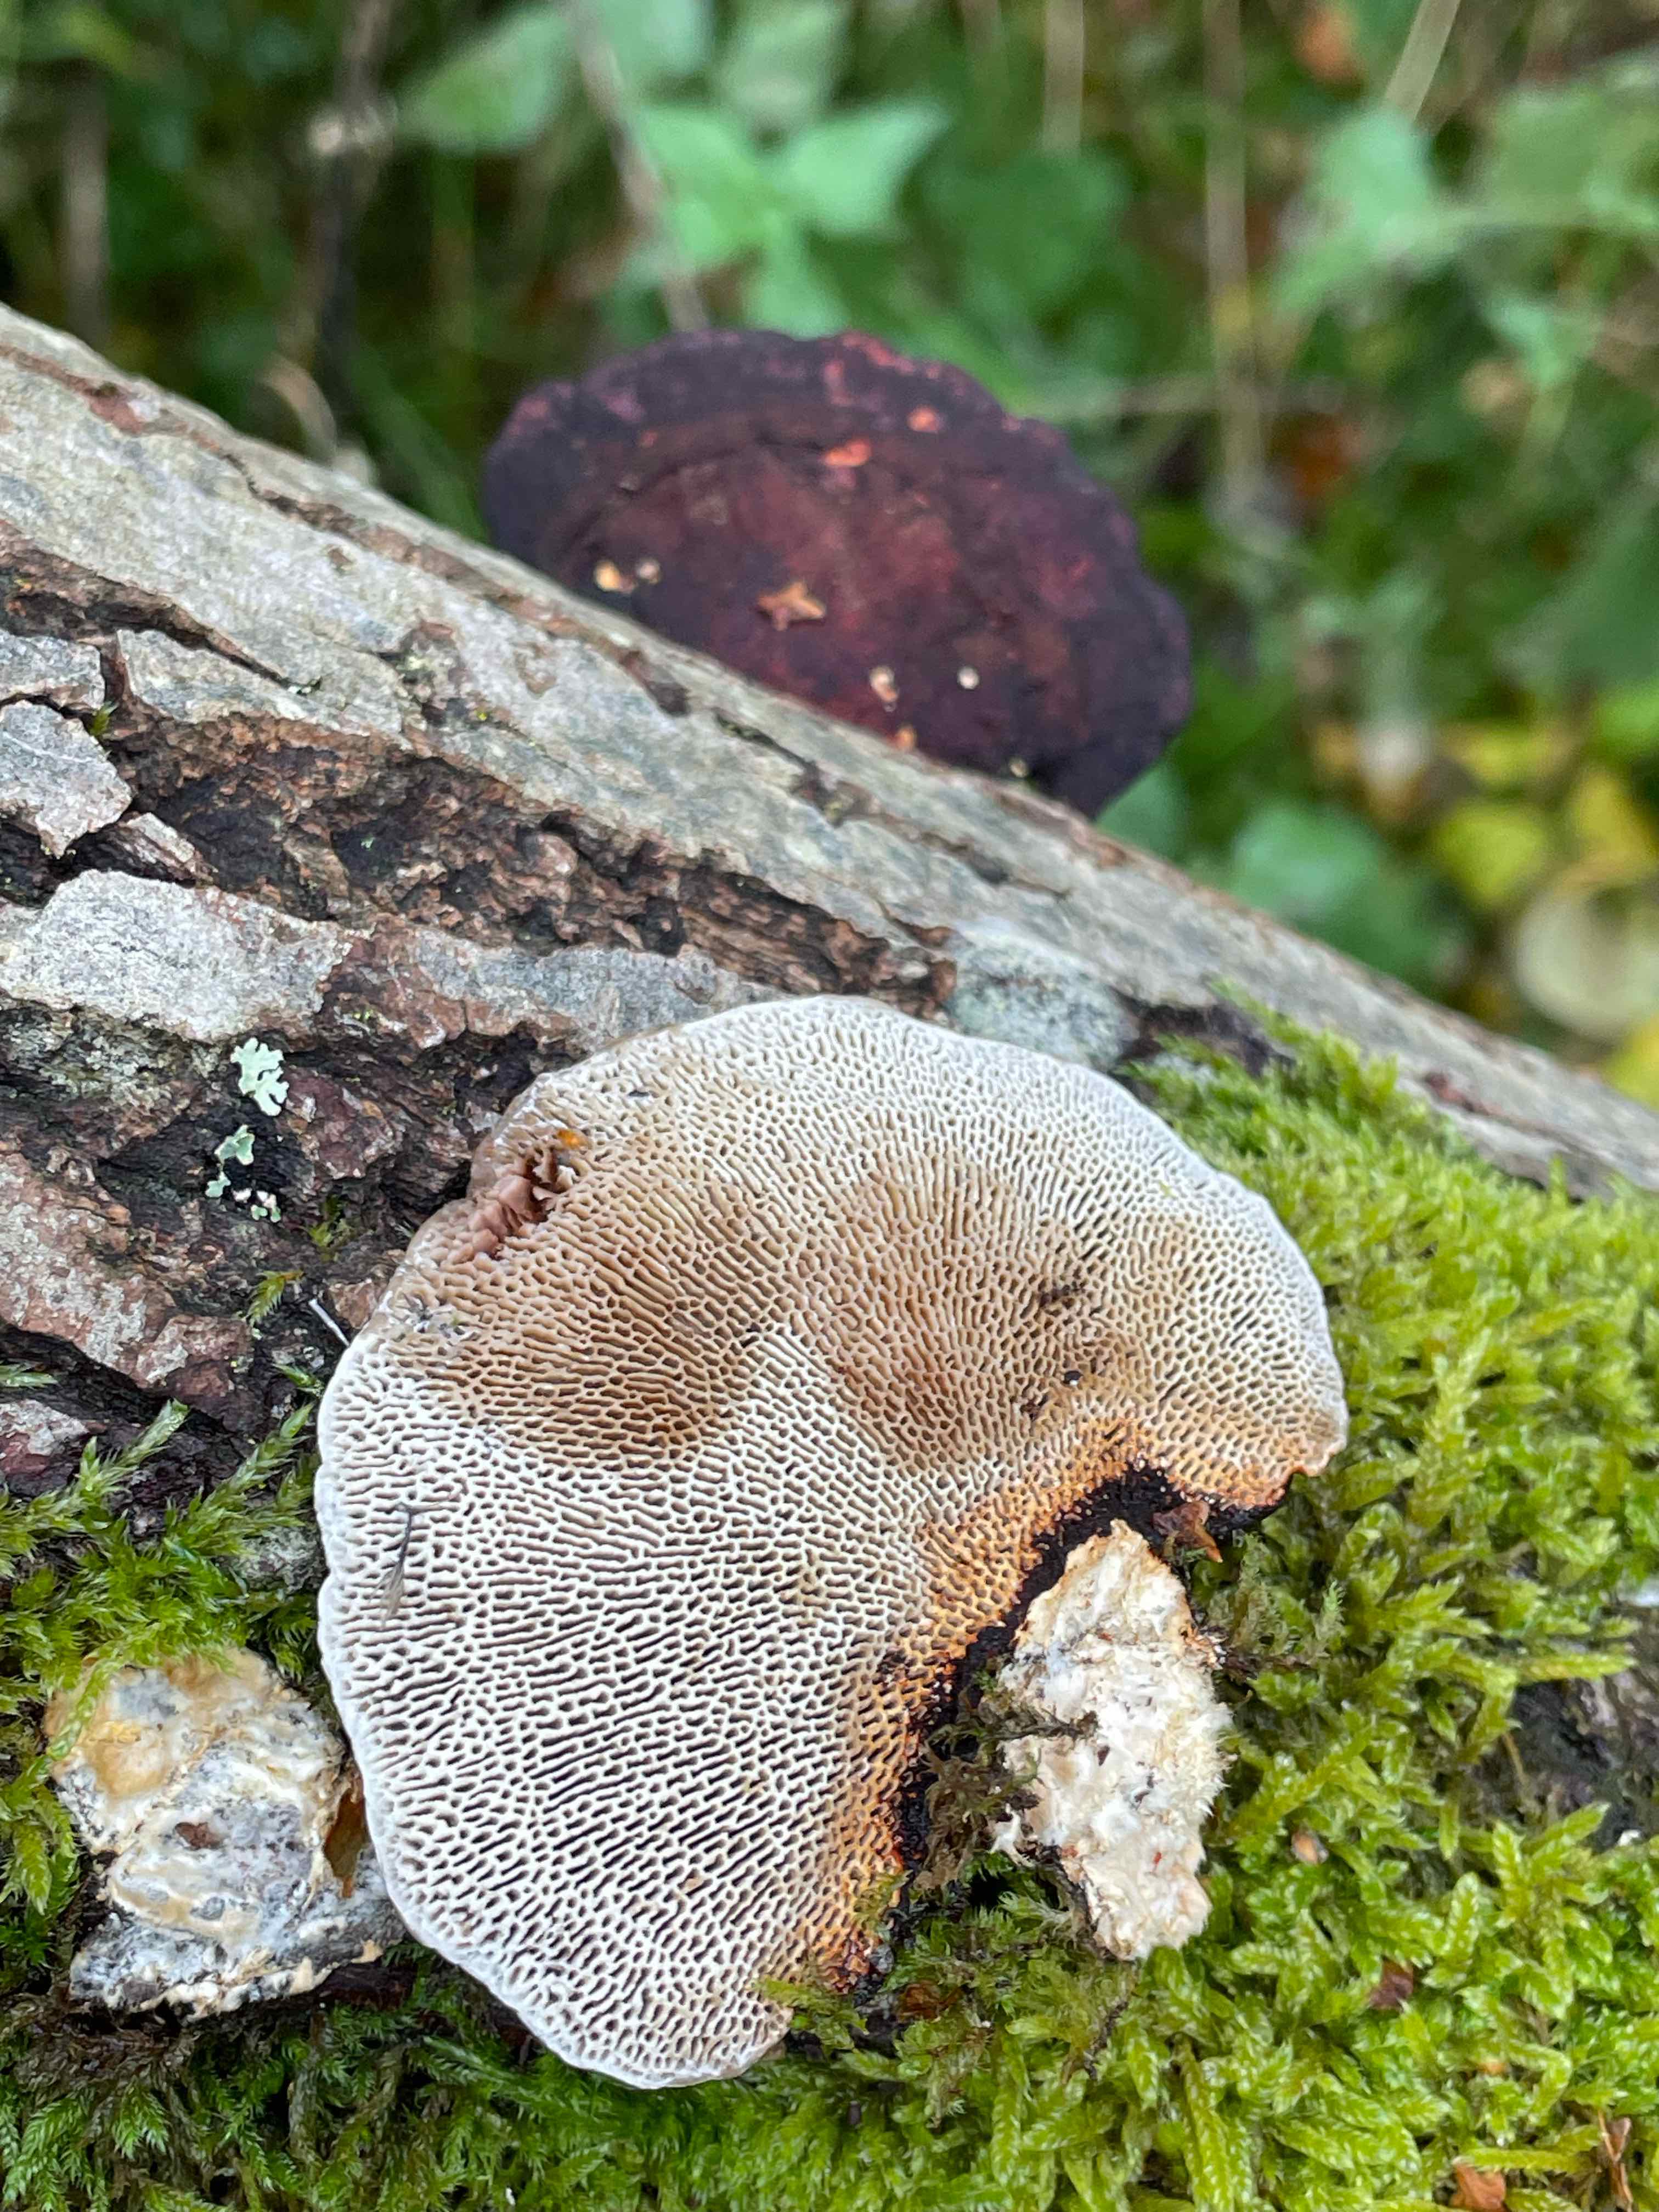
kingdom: Fungi
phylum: Basidiomycota
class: Agaricomycetes
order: Polyporales
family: Polyporaceae
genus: Daedaleopsis
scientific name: Daedaleopsis confragosa
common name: rødmende læderporesvamp
